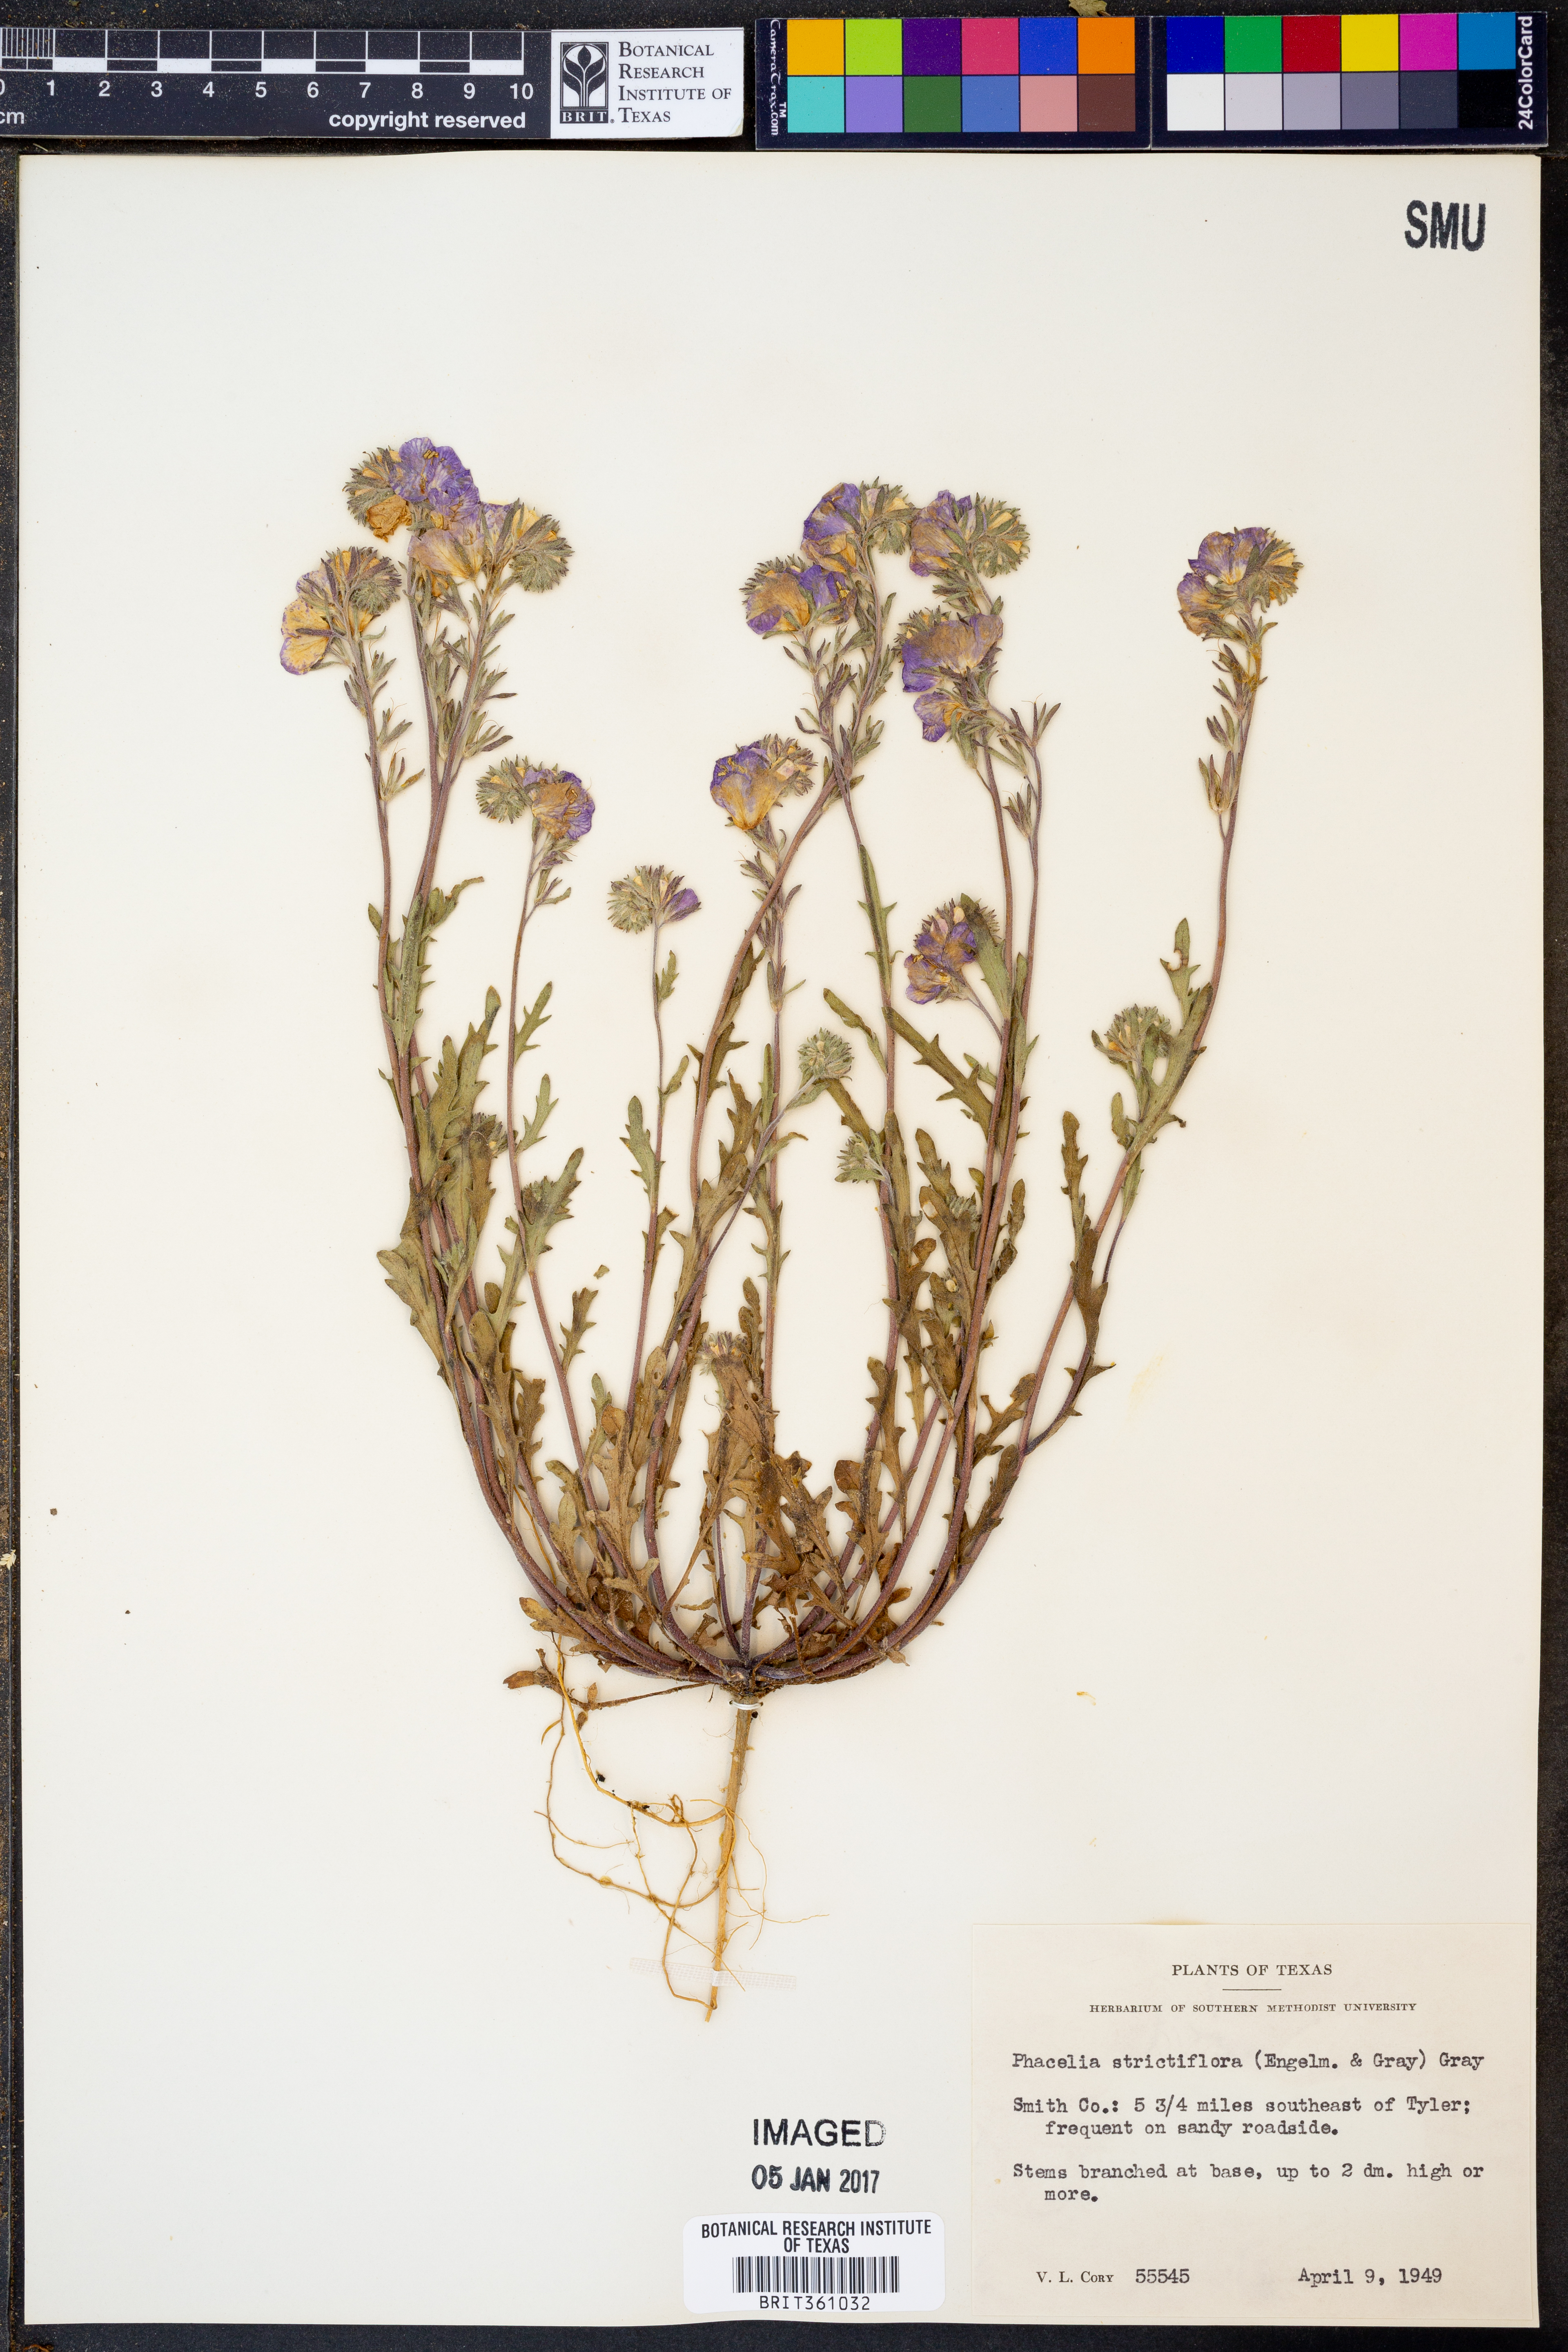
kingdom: Plantae
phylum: Tracheophyta
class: Magnoliopsida
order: Boraginales
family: Hydrophyllaceae
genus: Phacelia
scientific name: Phacelia strictiflora
